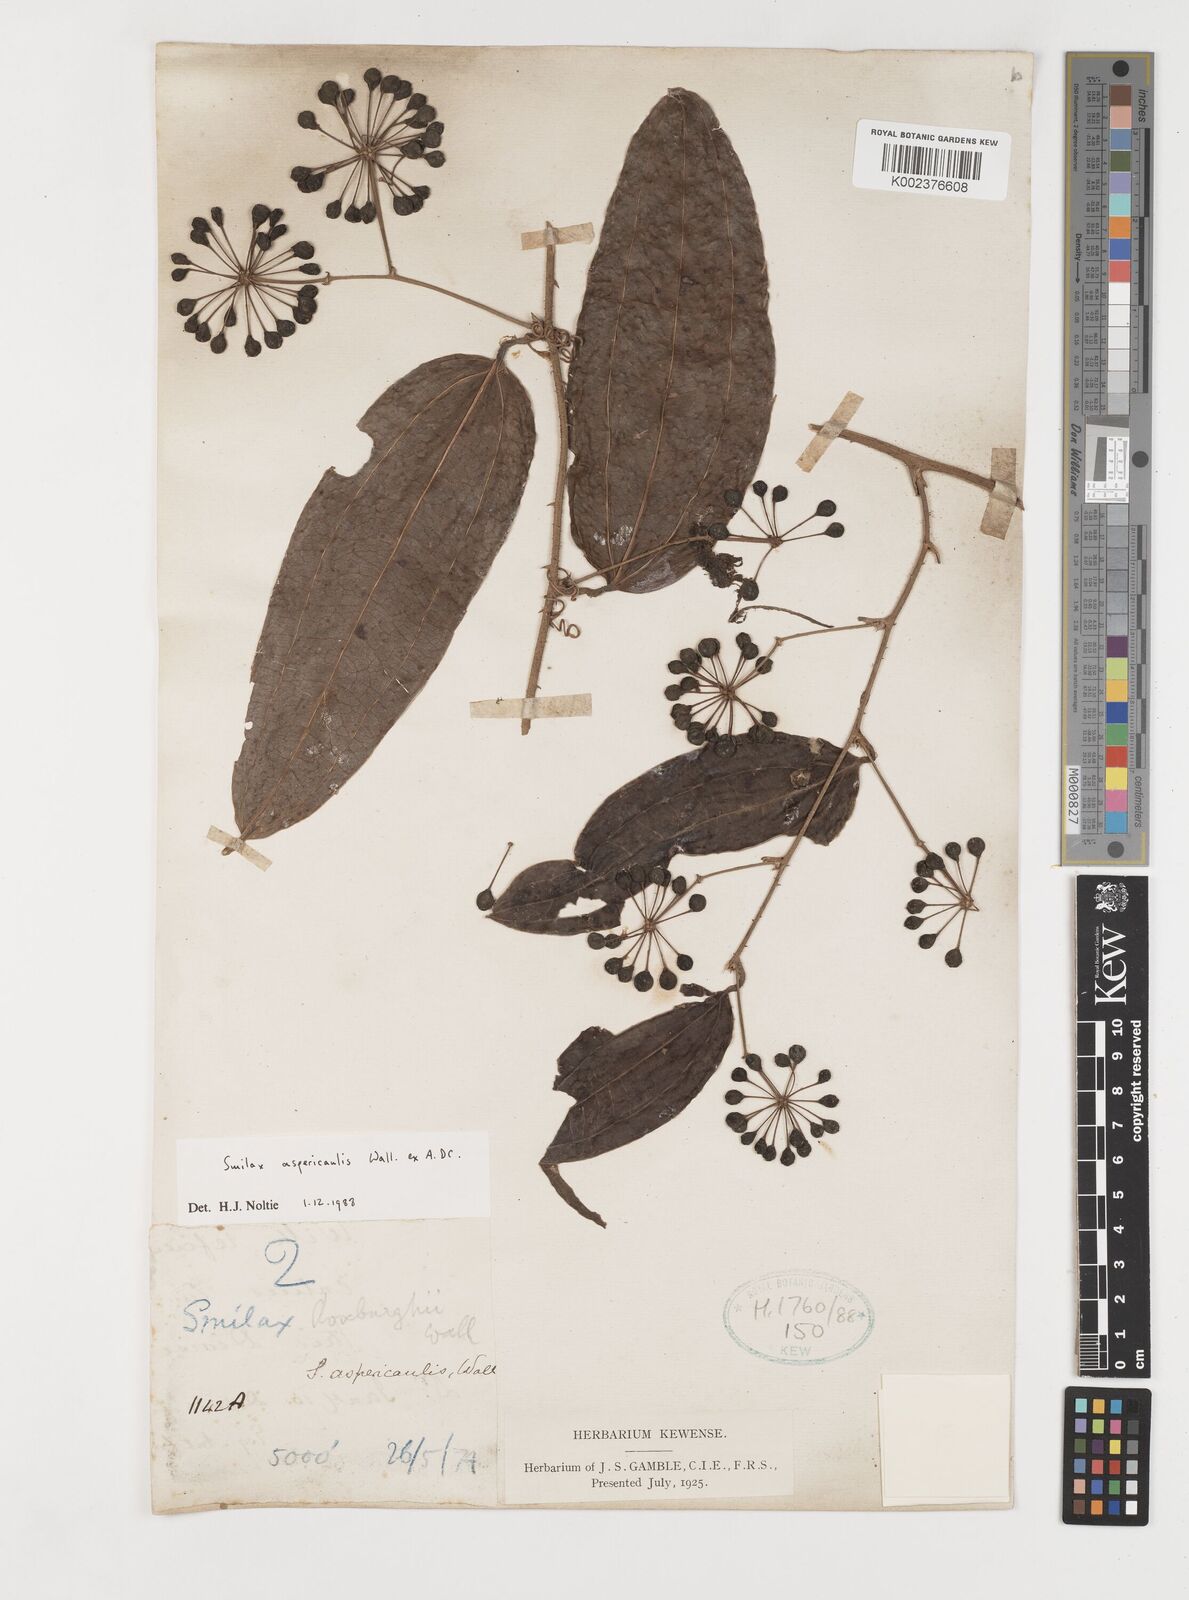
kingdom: Plantae
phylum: Tracheophyta
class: Liliopsida
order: Liliales
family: Smilacaceae
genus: Smilax
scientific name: Smilax aspericaulis
